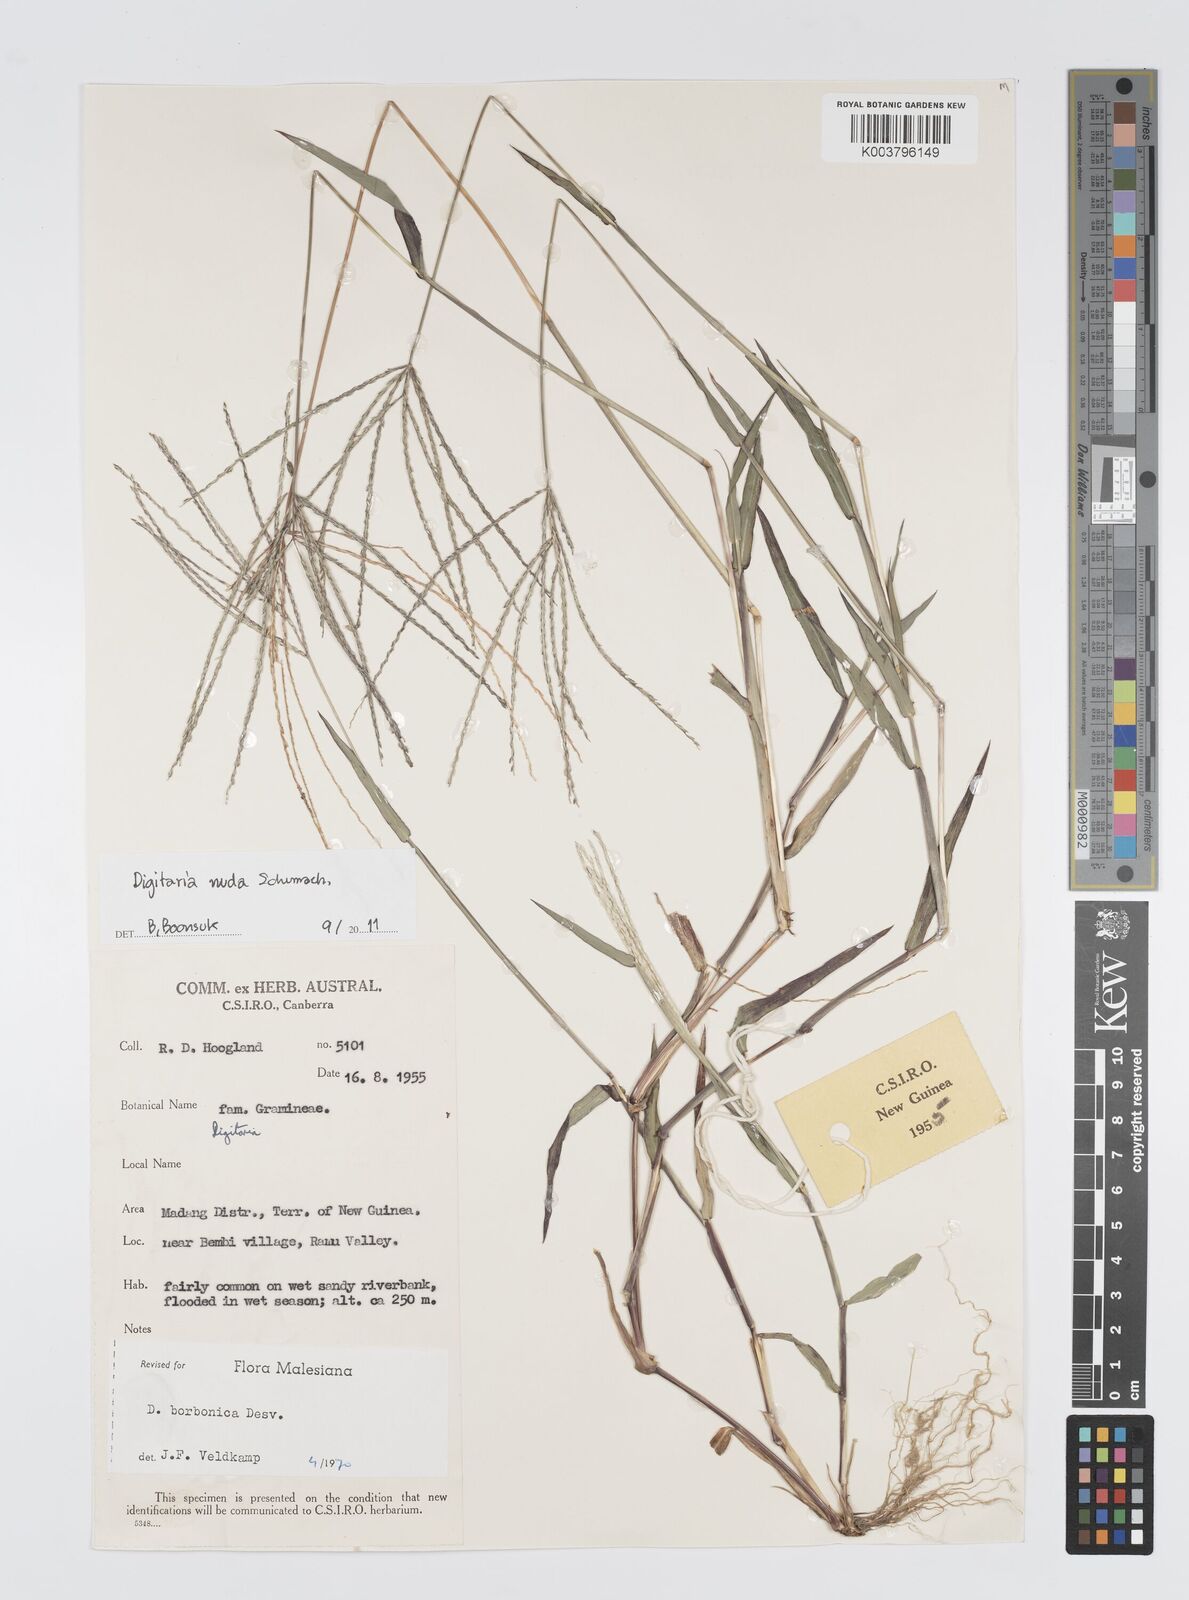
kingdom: Plantae
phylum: Tracheophyta
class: Liliopsida
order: Poales
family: Poaceae
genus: Digitaria
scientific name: Digitaria nuda
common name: Naked crabgrass
